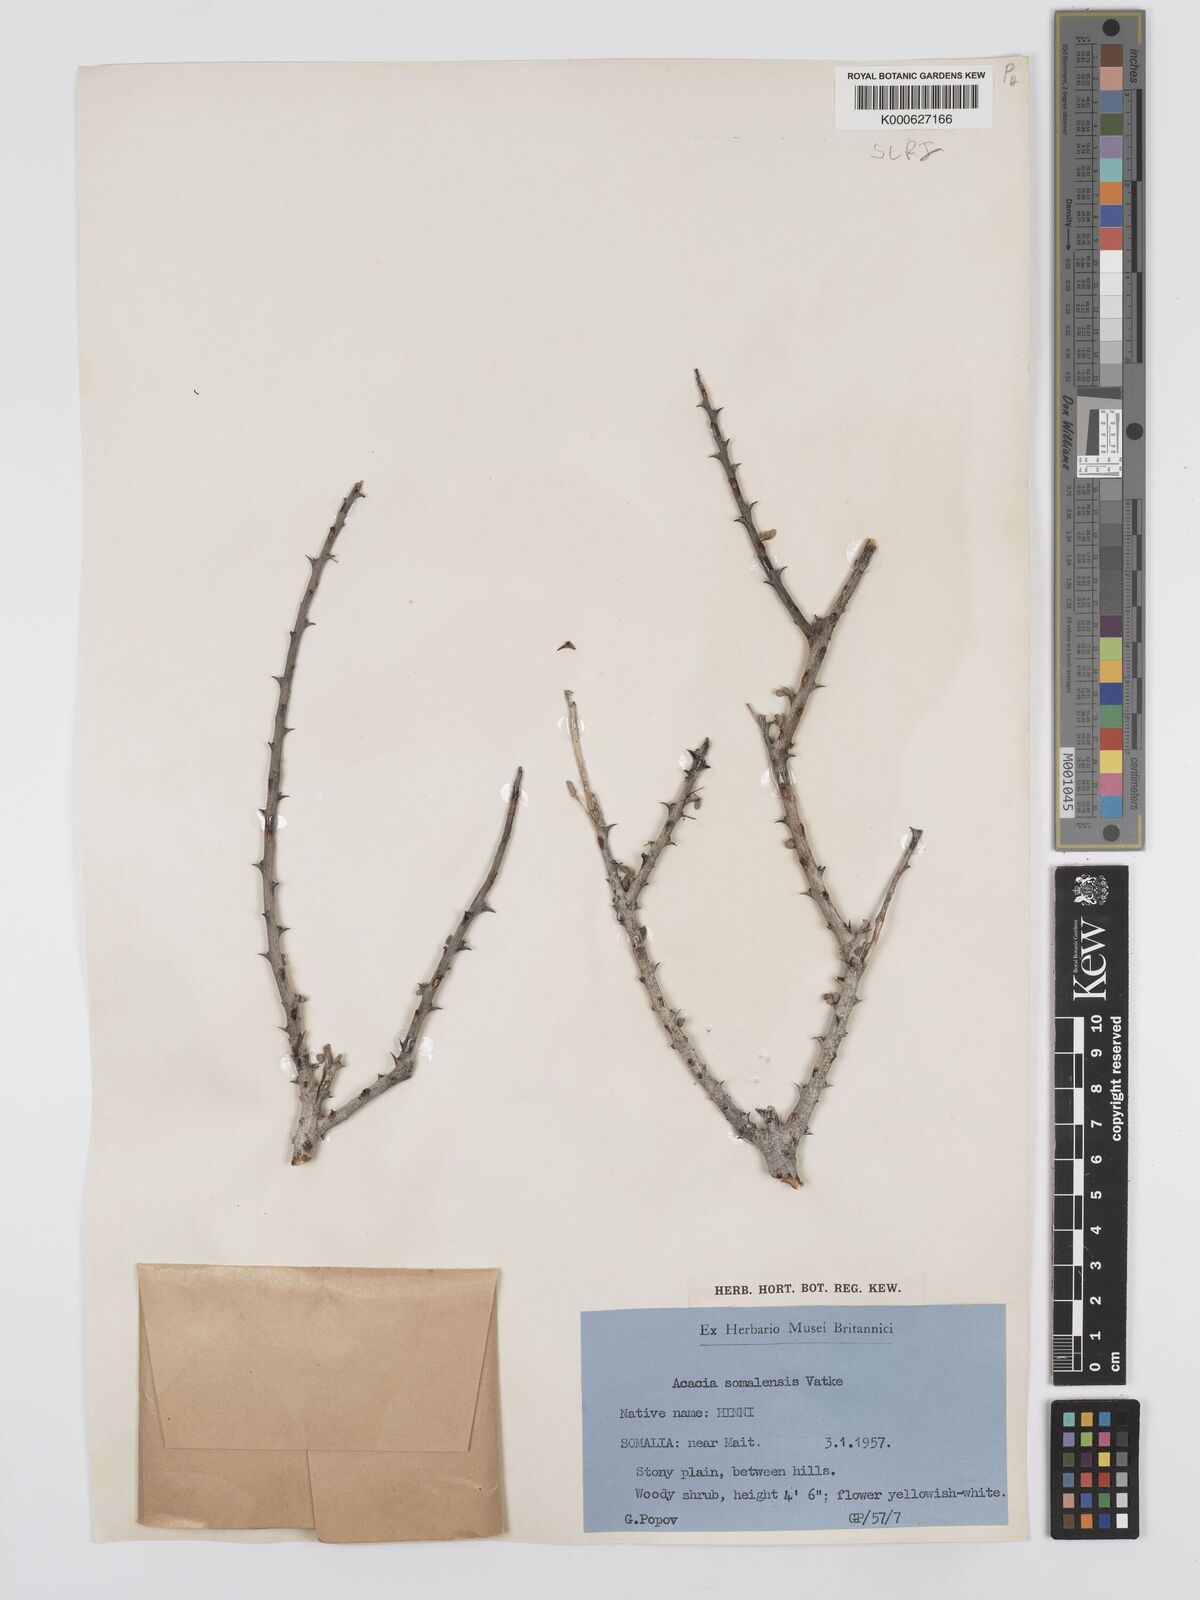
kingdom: Plantae
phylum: Tracheophyta
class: Magnoliopsida
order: Fabales
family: Fabaceae
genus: Senegalia
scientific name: Senegalia somalensis
